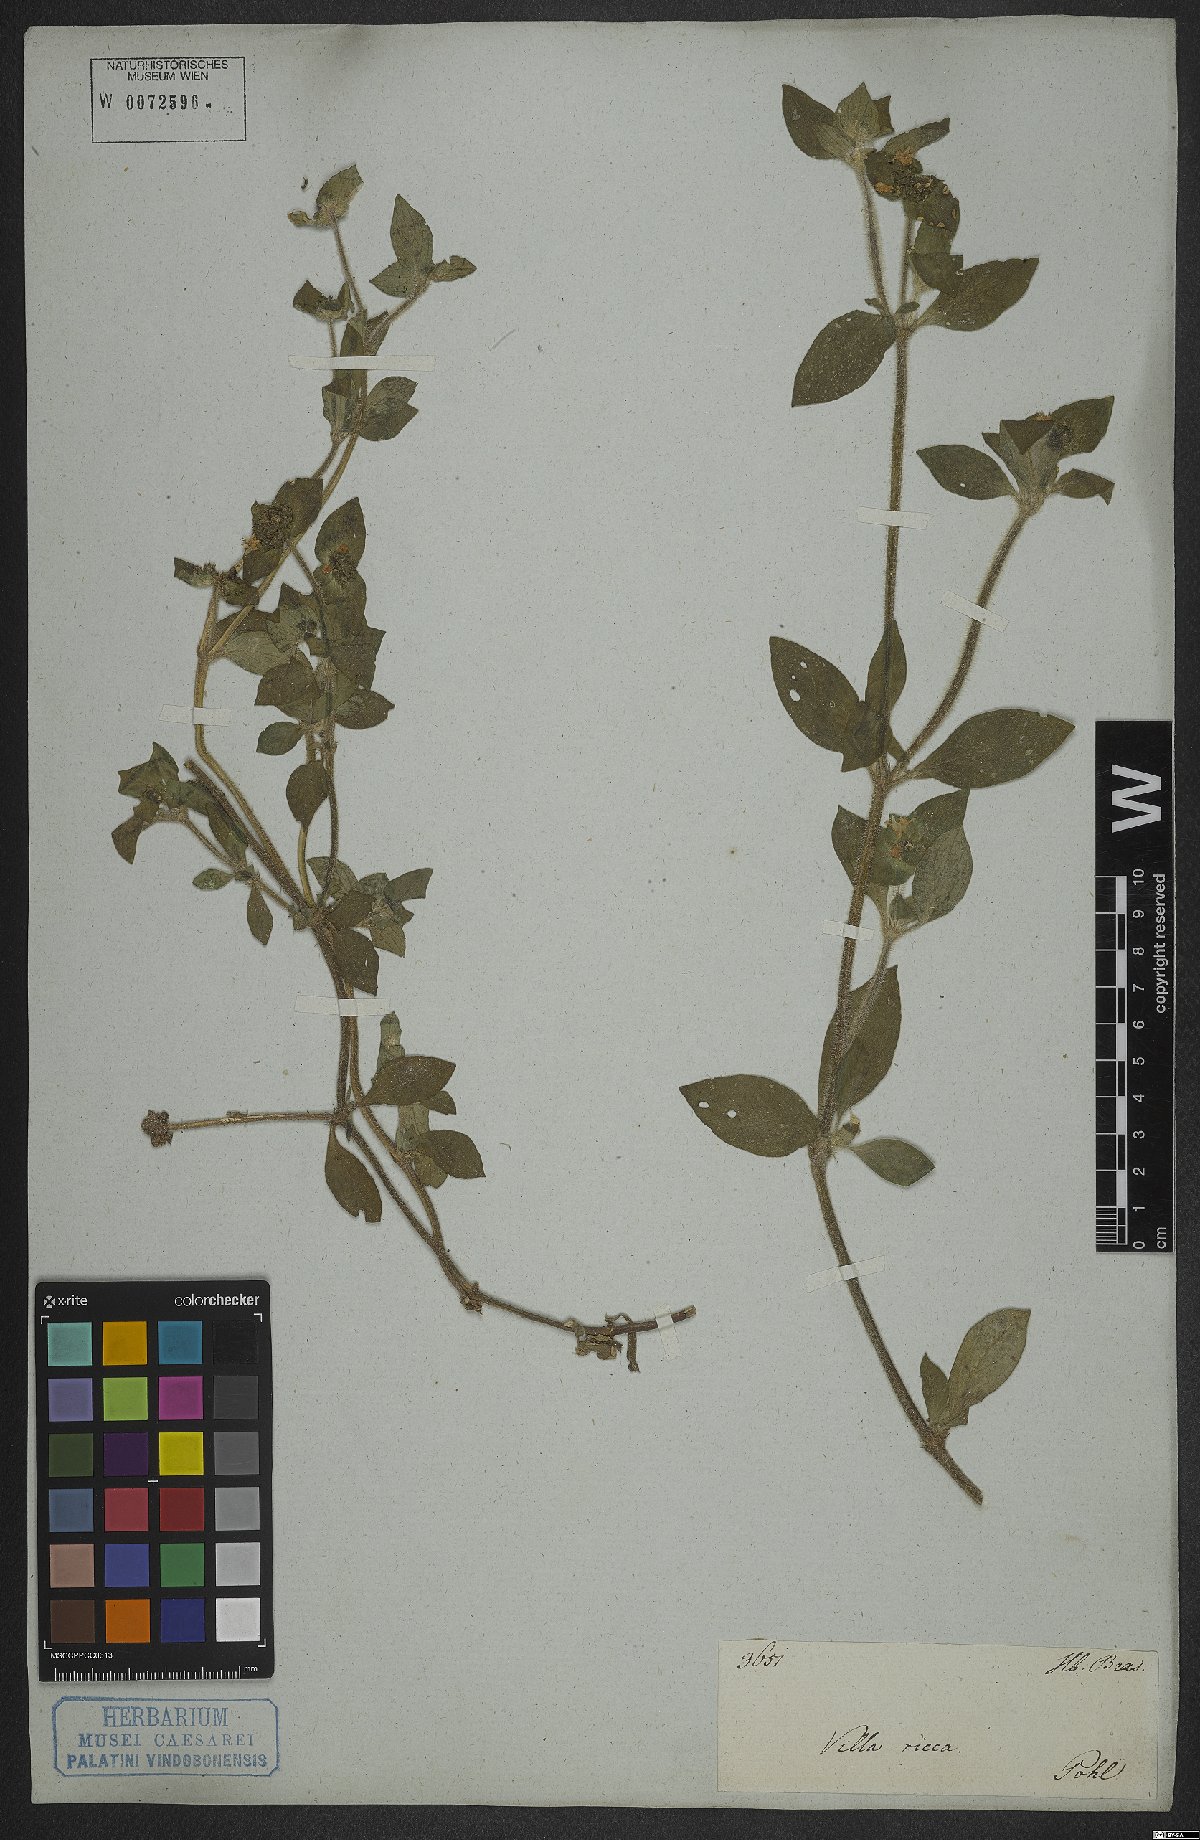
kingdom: Plantae
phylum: Tracheophyta
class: Magnoliopsida
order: Gentianales
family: Rubiaceae
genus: Richardia
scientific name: Richardia brasiliensis
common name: Tropical mexican clover
